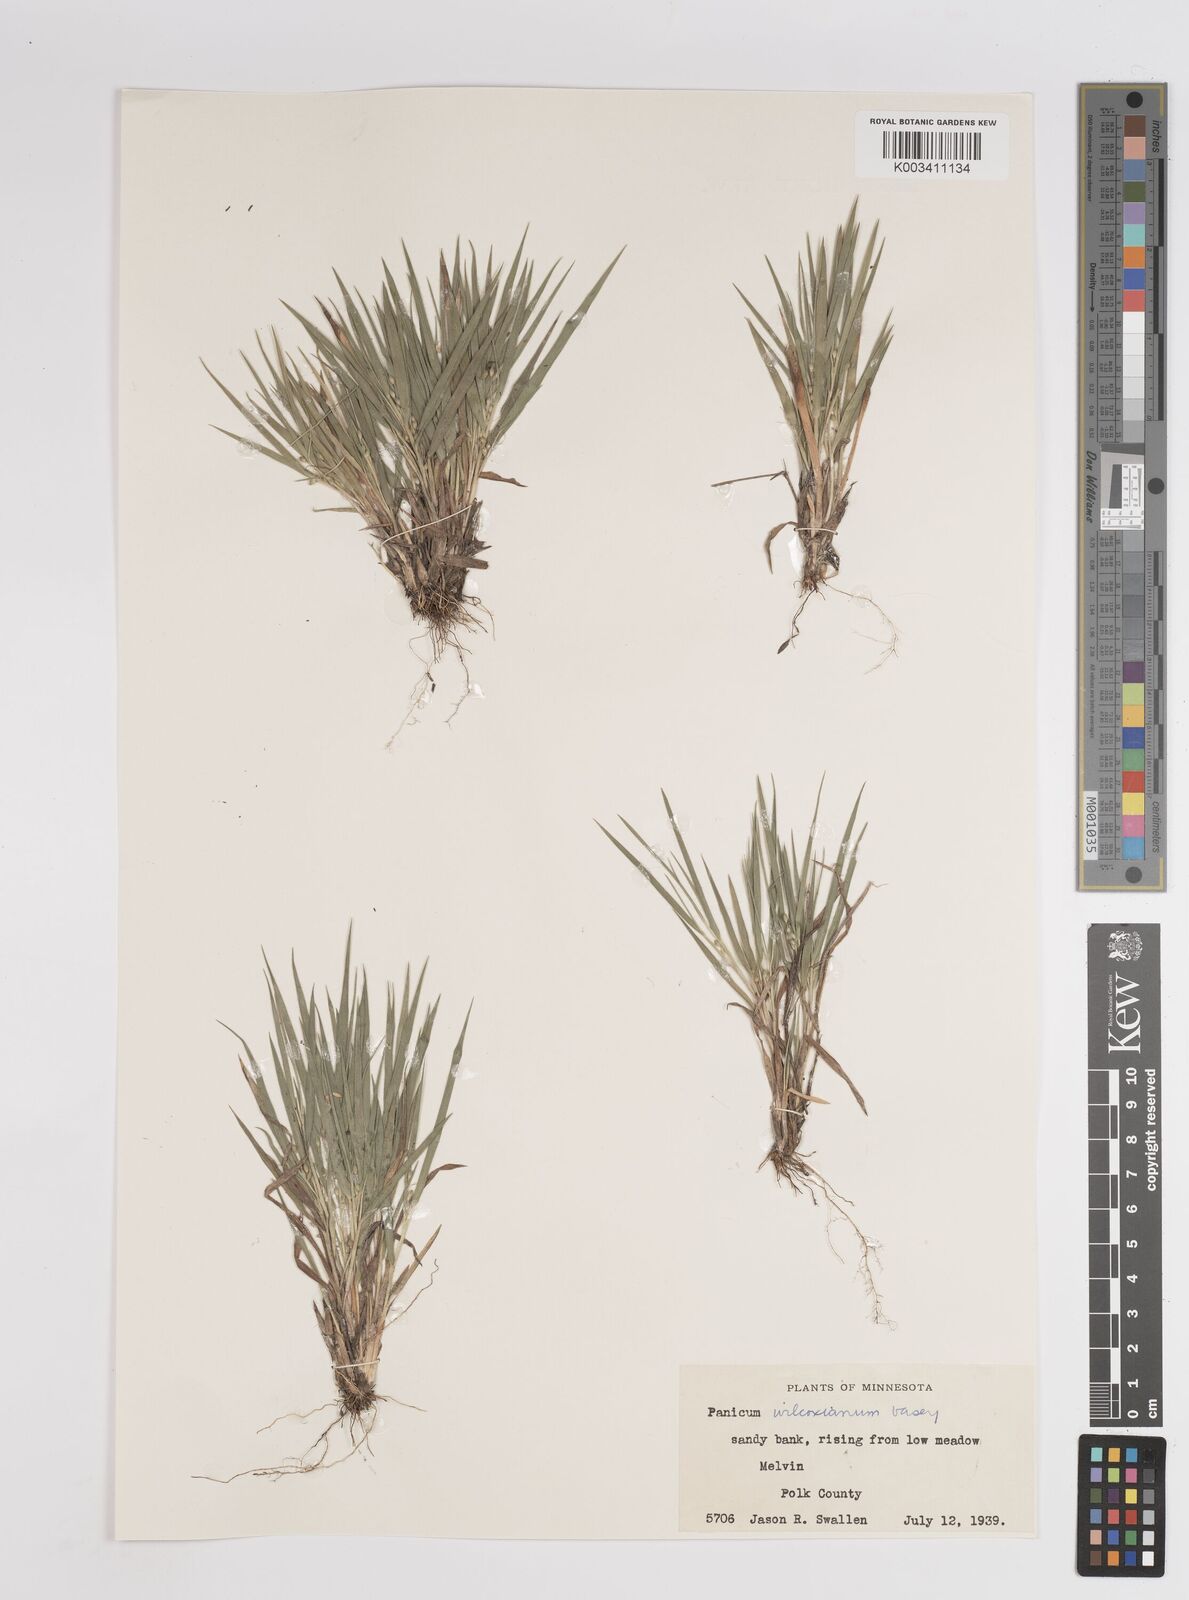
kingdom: Plantae
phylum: Tracheophyta
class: Liliopsida
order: Poales
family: Poaceae
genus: Dichanthelium
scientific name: Dichanthelium wilcoxianum
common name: Wilcox's panicgrass
